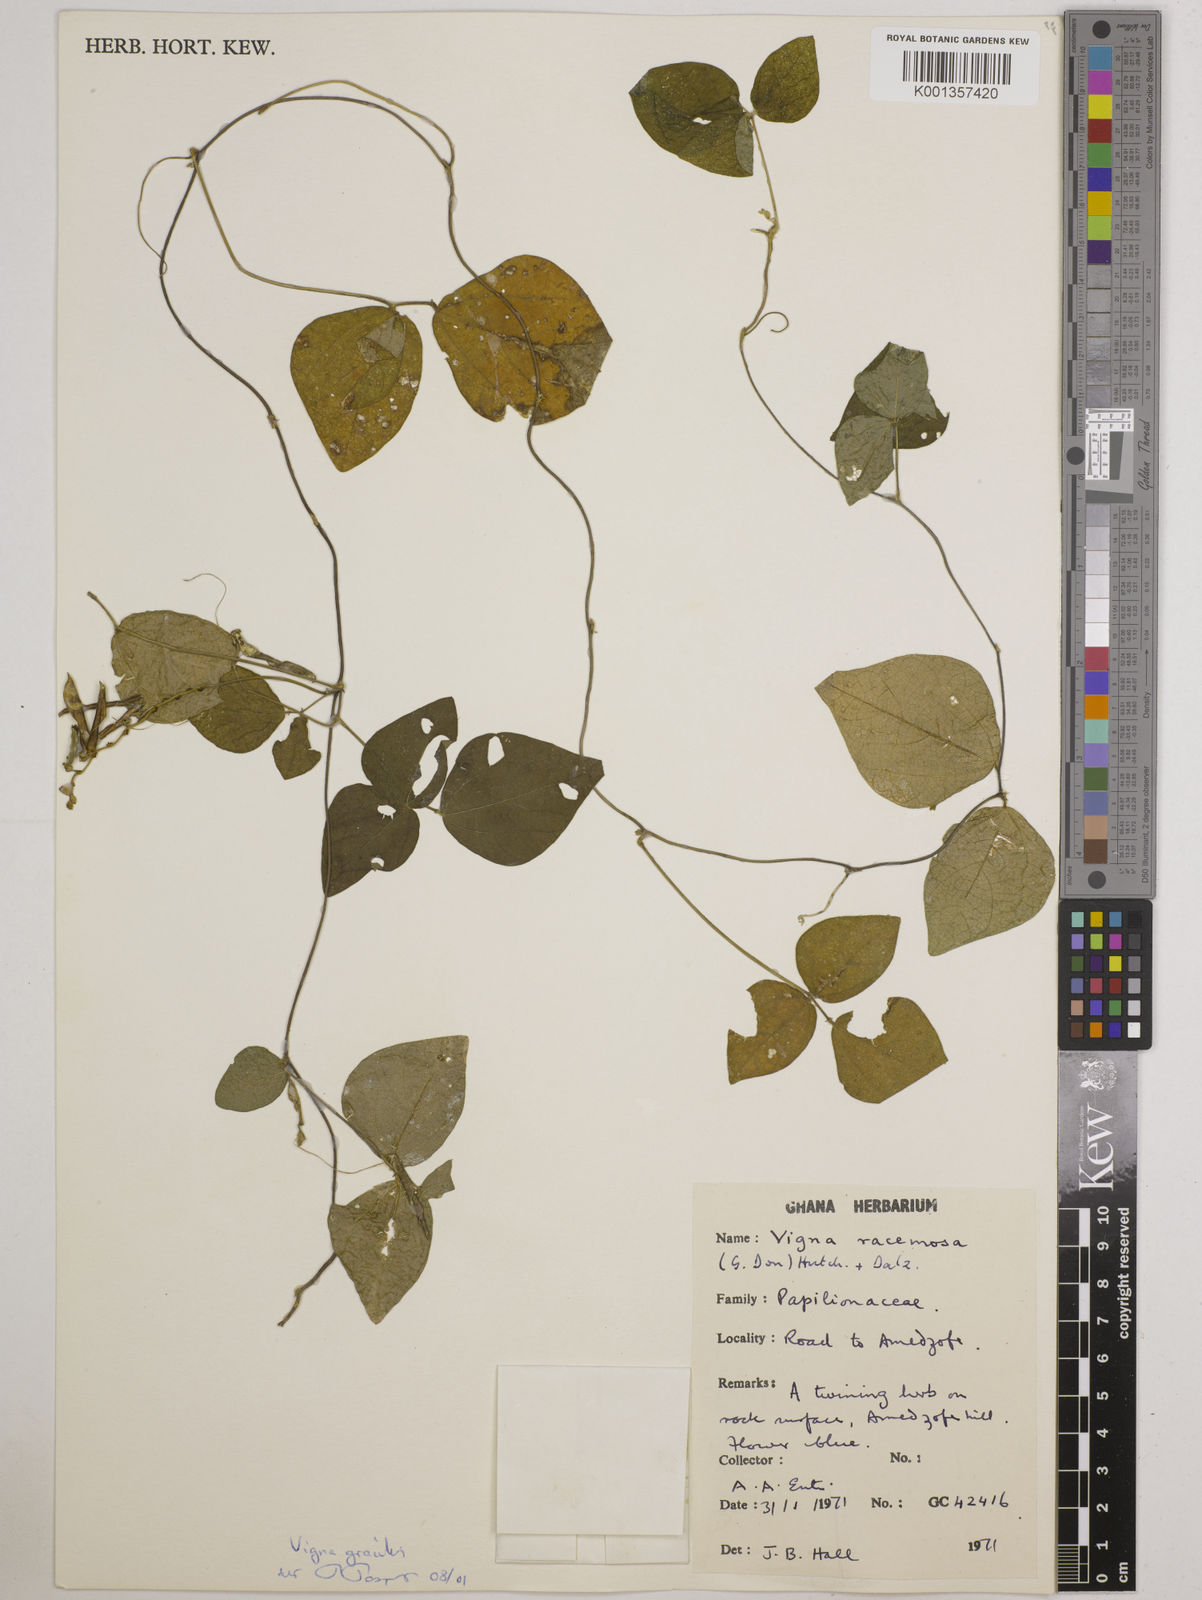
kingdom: Plantae
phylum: Tracheophyta
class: Magnoliopsida
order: Fabales
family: Fabaceae
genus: Vigna
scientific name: Vigna gracilis
